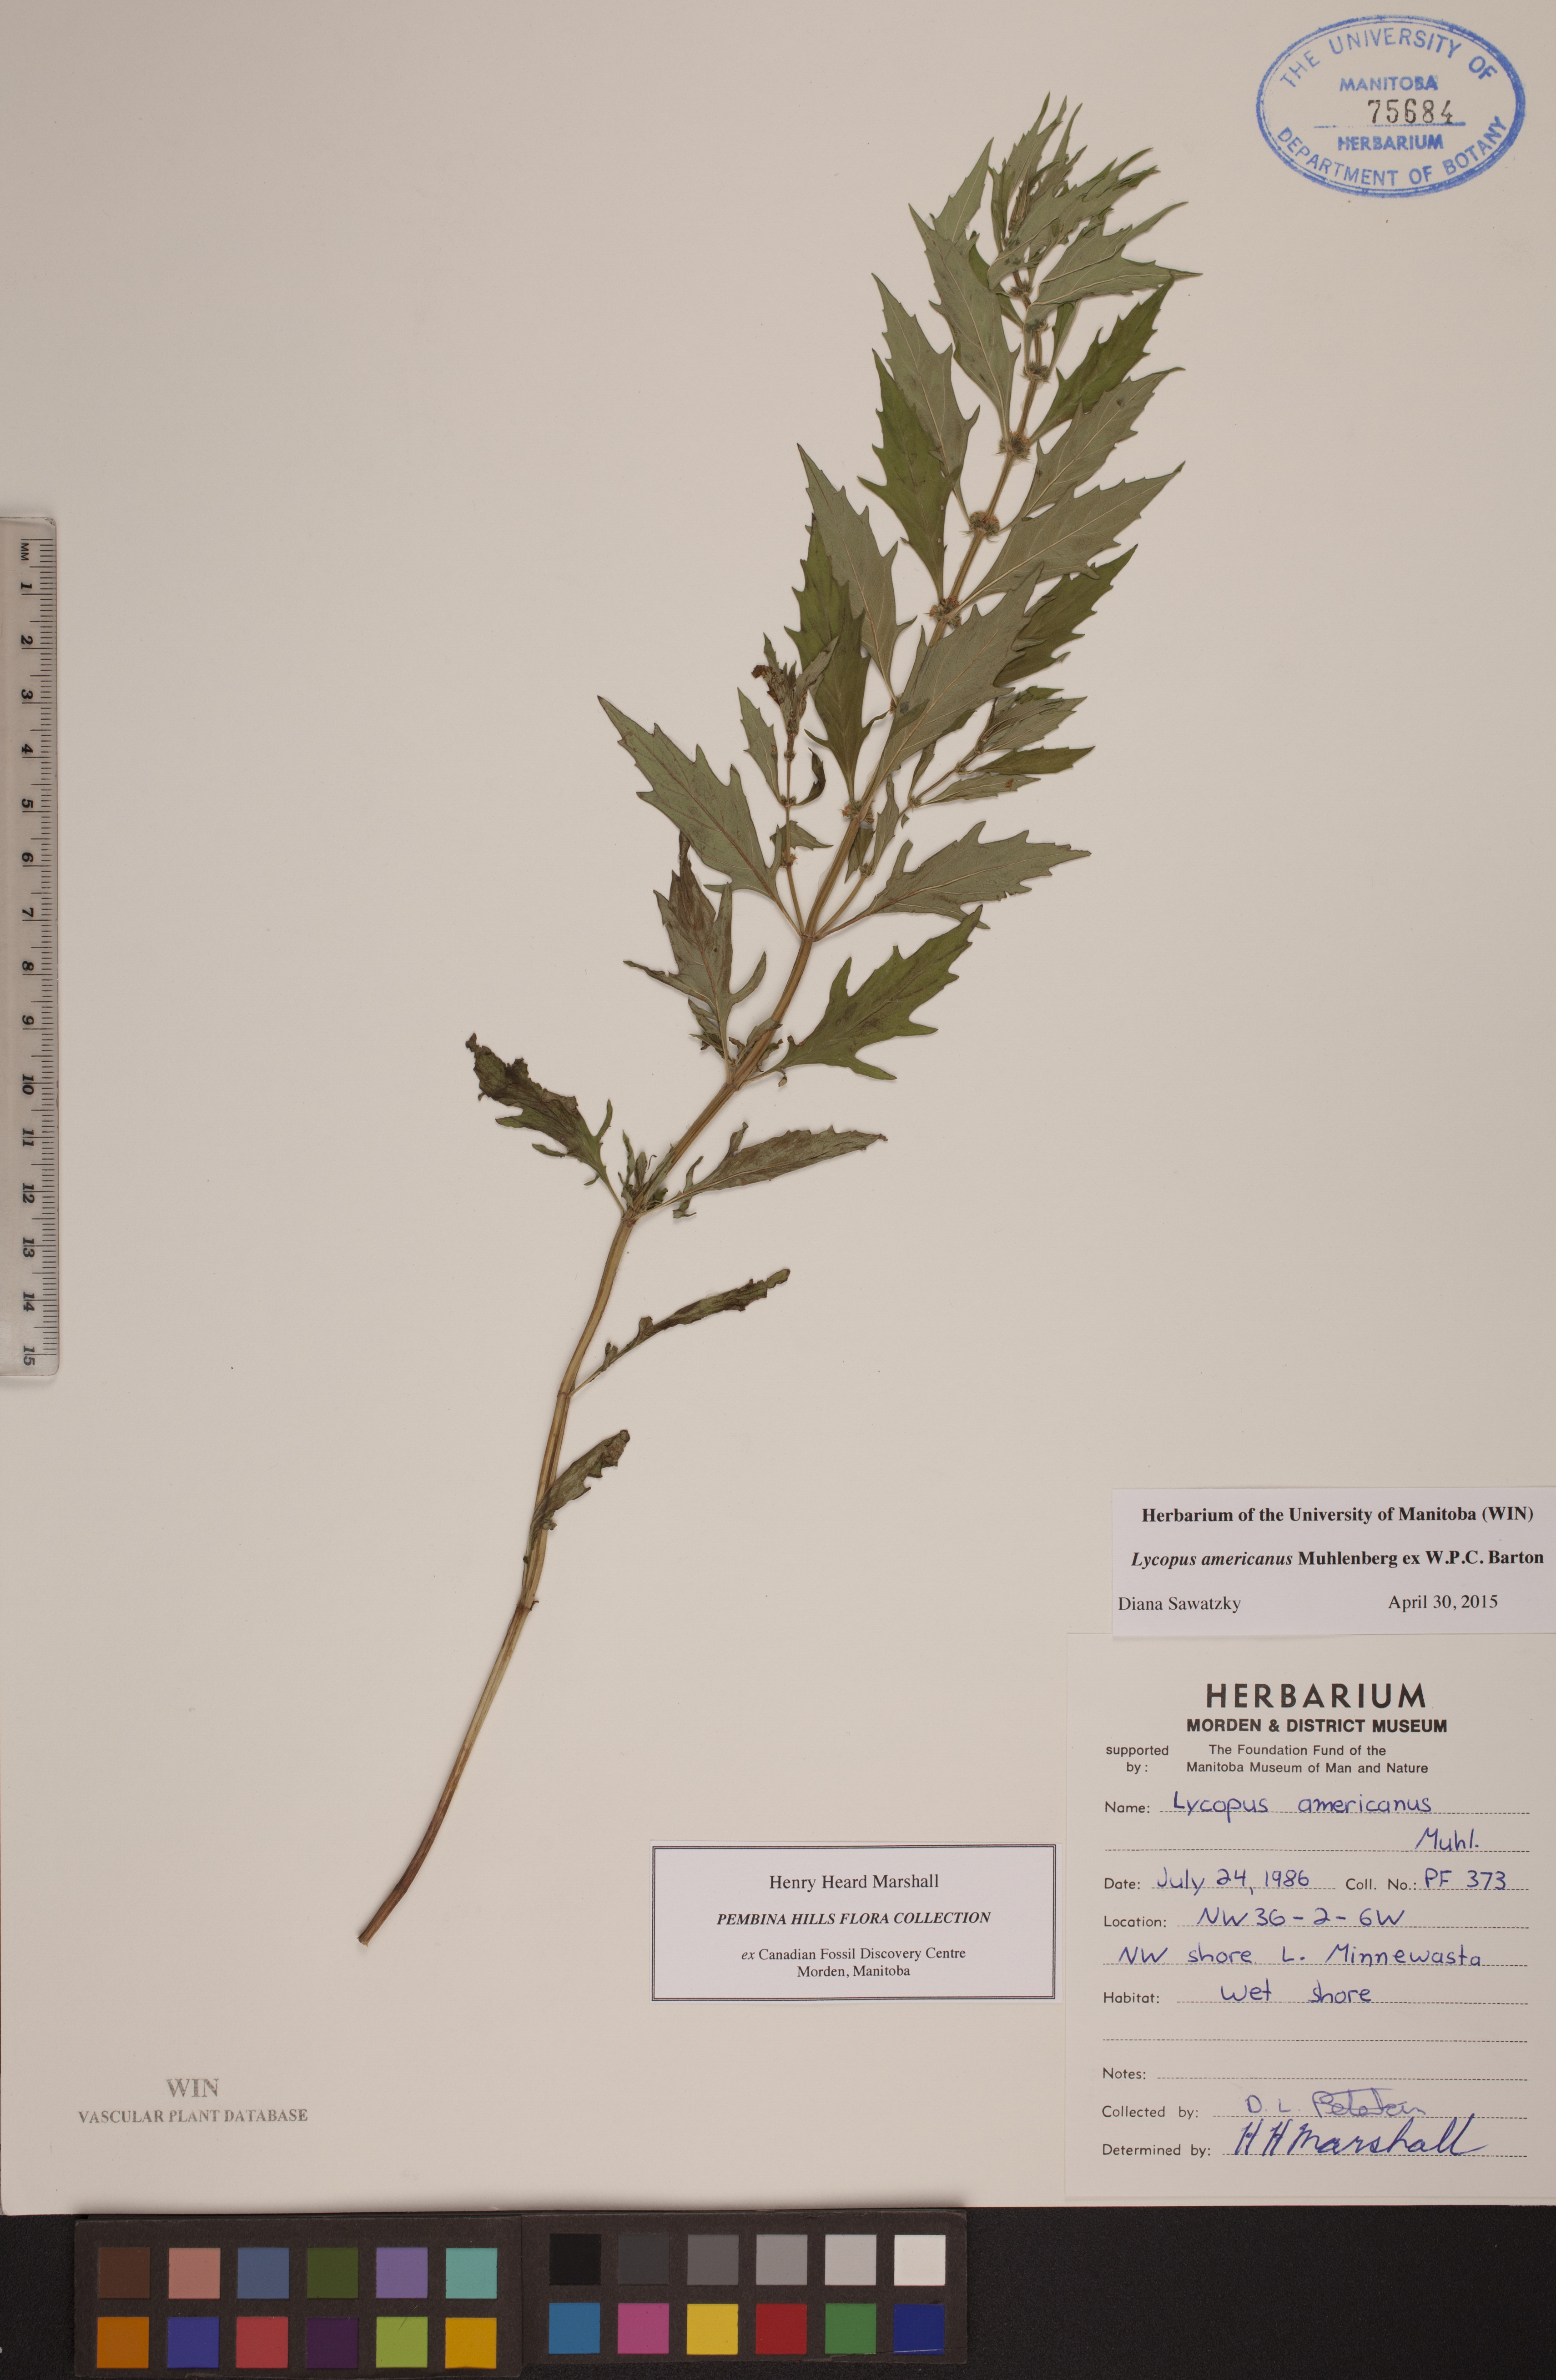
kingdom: Plantae
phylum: Tracheophyta
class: Magnoliopsida
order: Lamiales
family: Lamiaceae
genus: Lycopus
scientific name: Lycopus americanus
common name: American bugleweed
